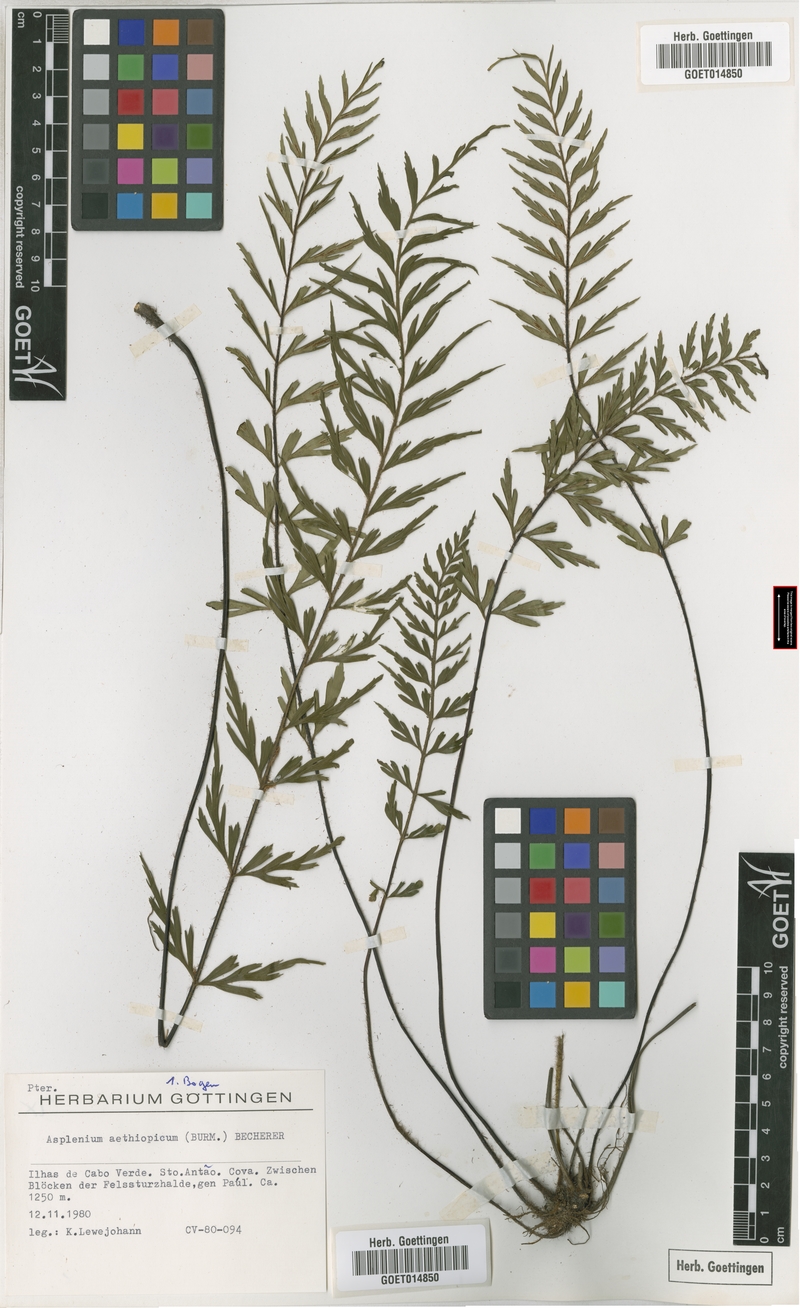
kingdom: Plantae
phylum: Tracheophyta
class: Polypodiopsida
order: Polypodiales
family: Aspleniaceae
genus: Asplenium
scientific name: Asplenium aethiopicum
